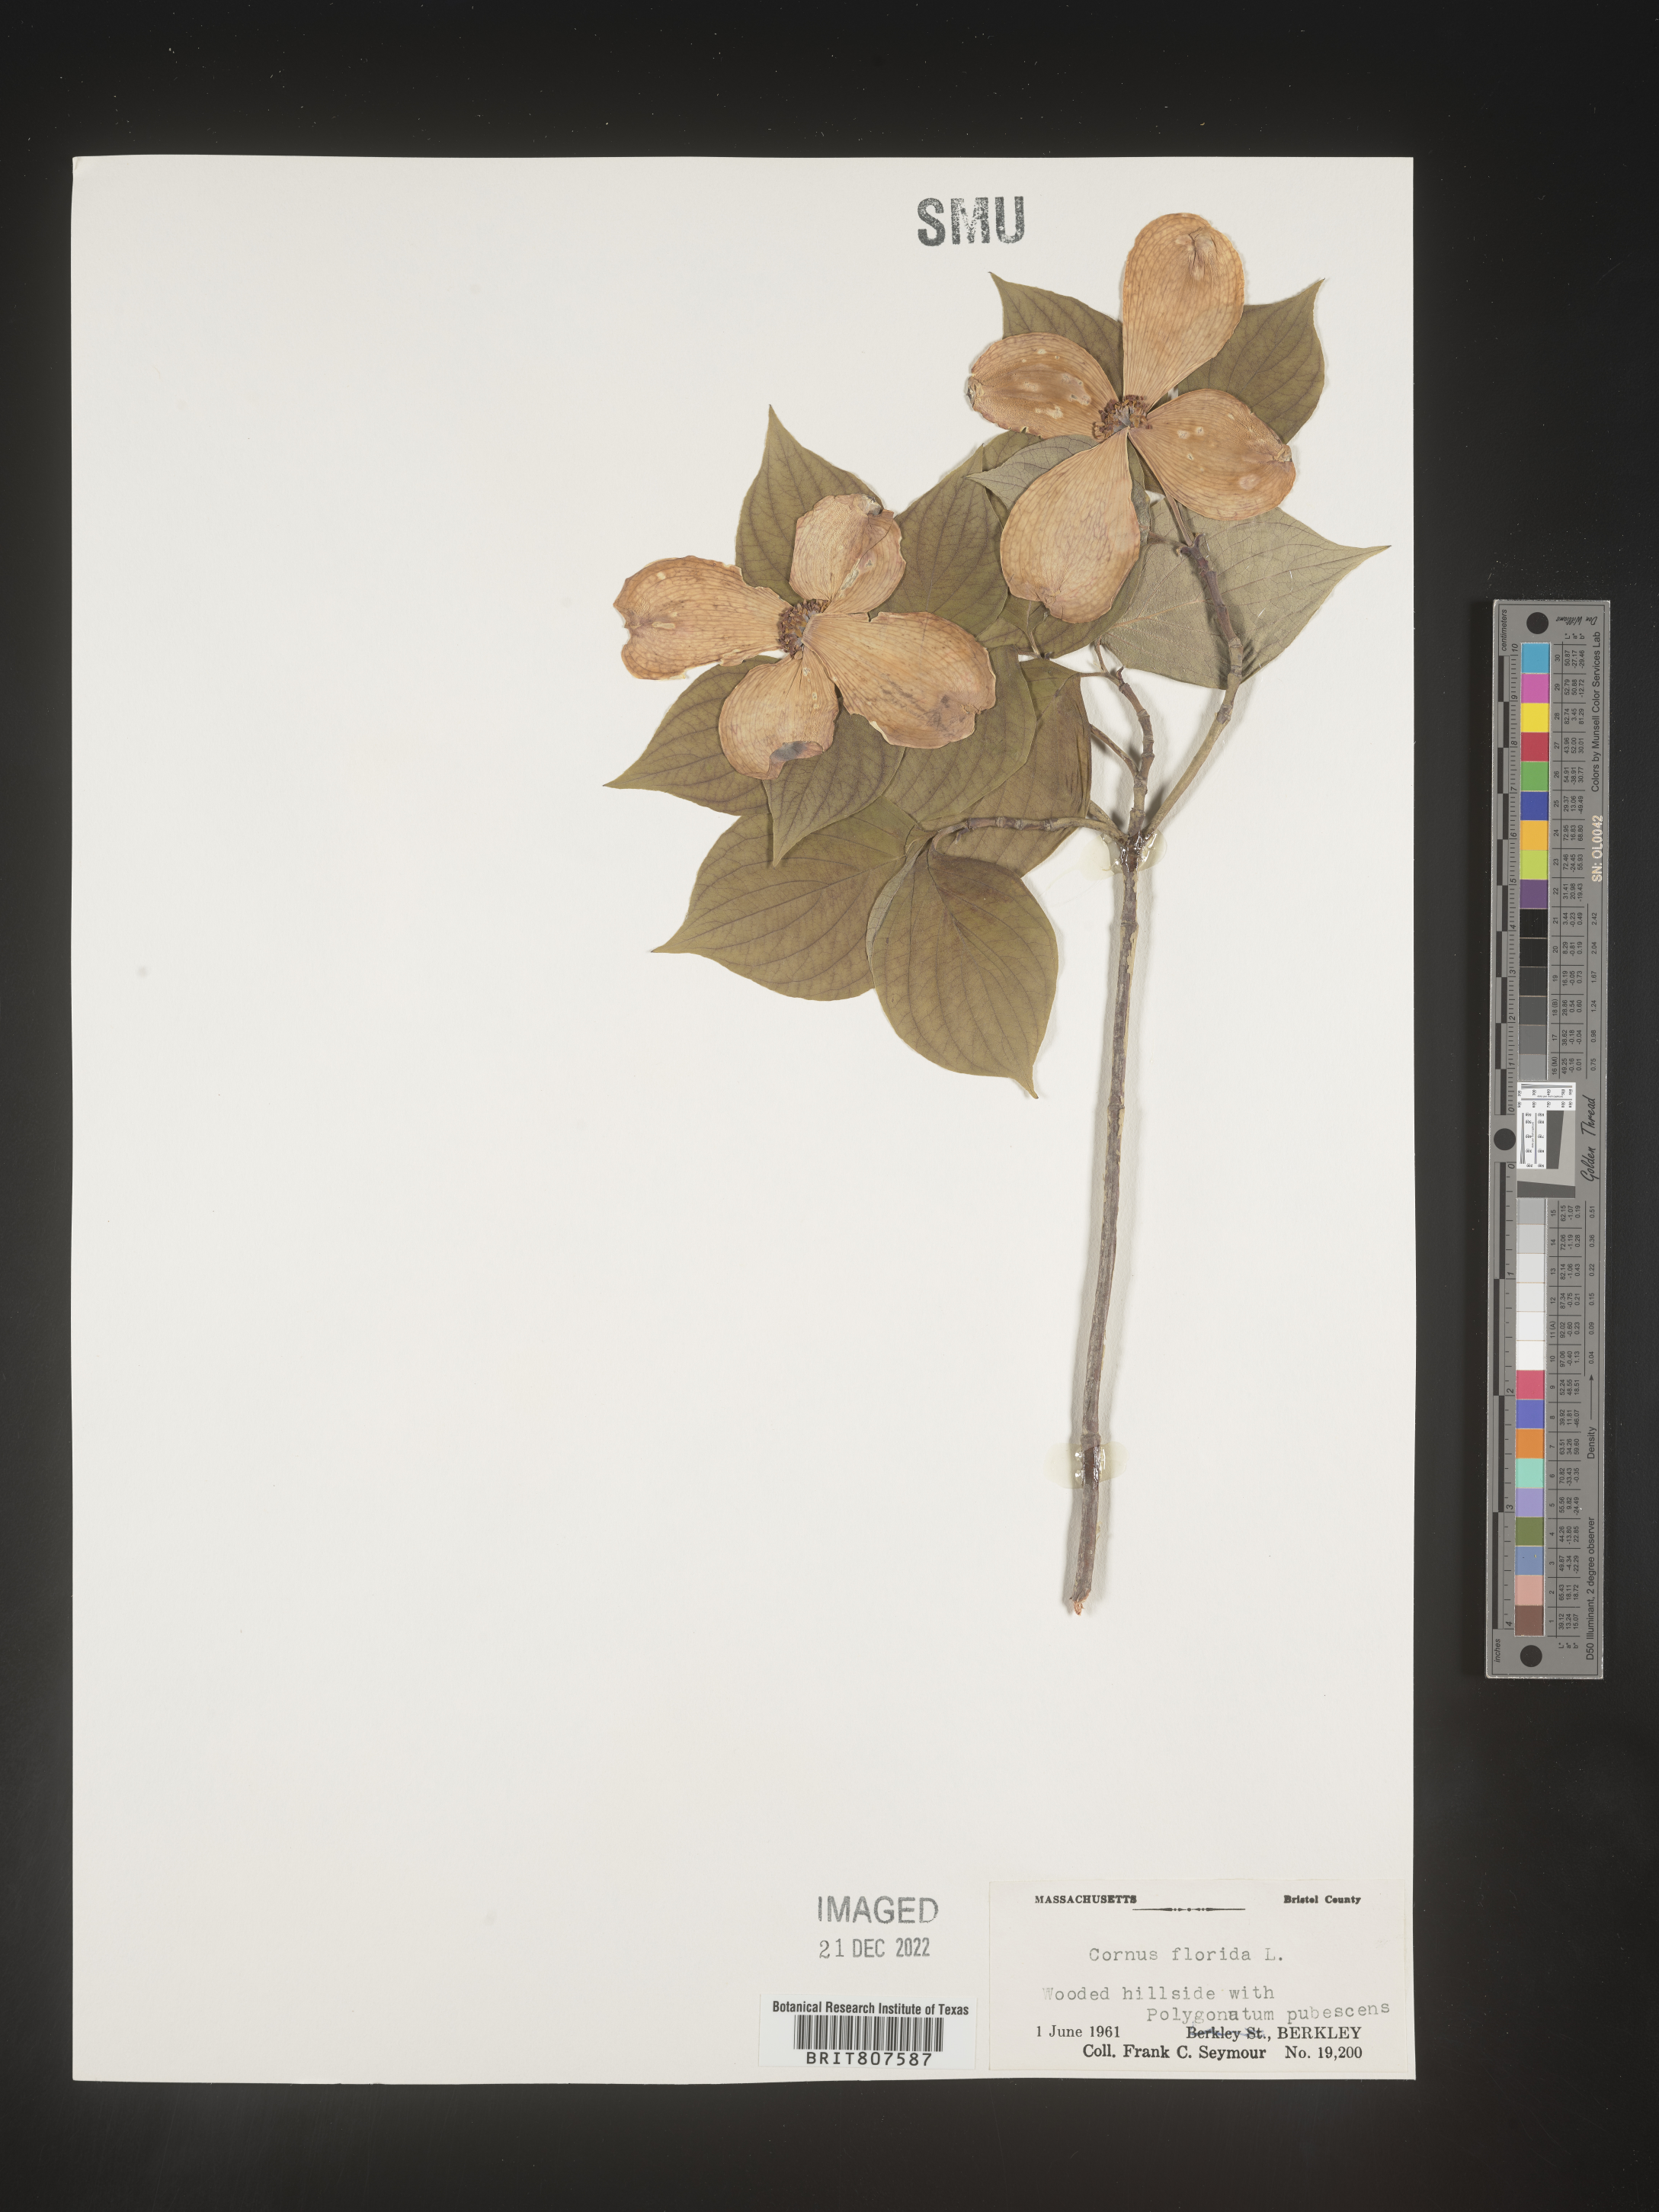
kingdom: Plantae
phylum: Tracheophyta
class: Magnoliopsida
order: Cornales
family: Cornaceae
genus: Cornus
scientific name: Cornus florida
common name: Flowering dogwood
